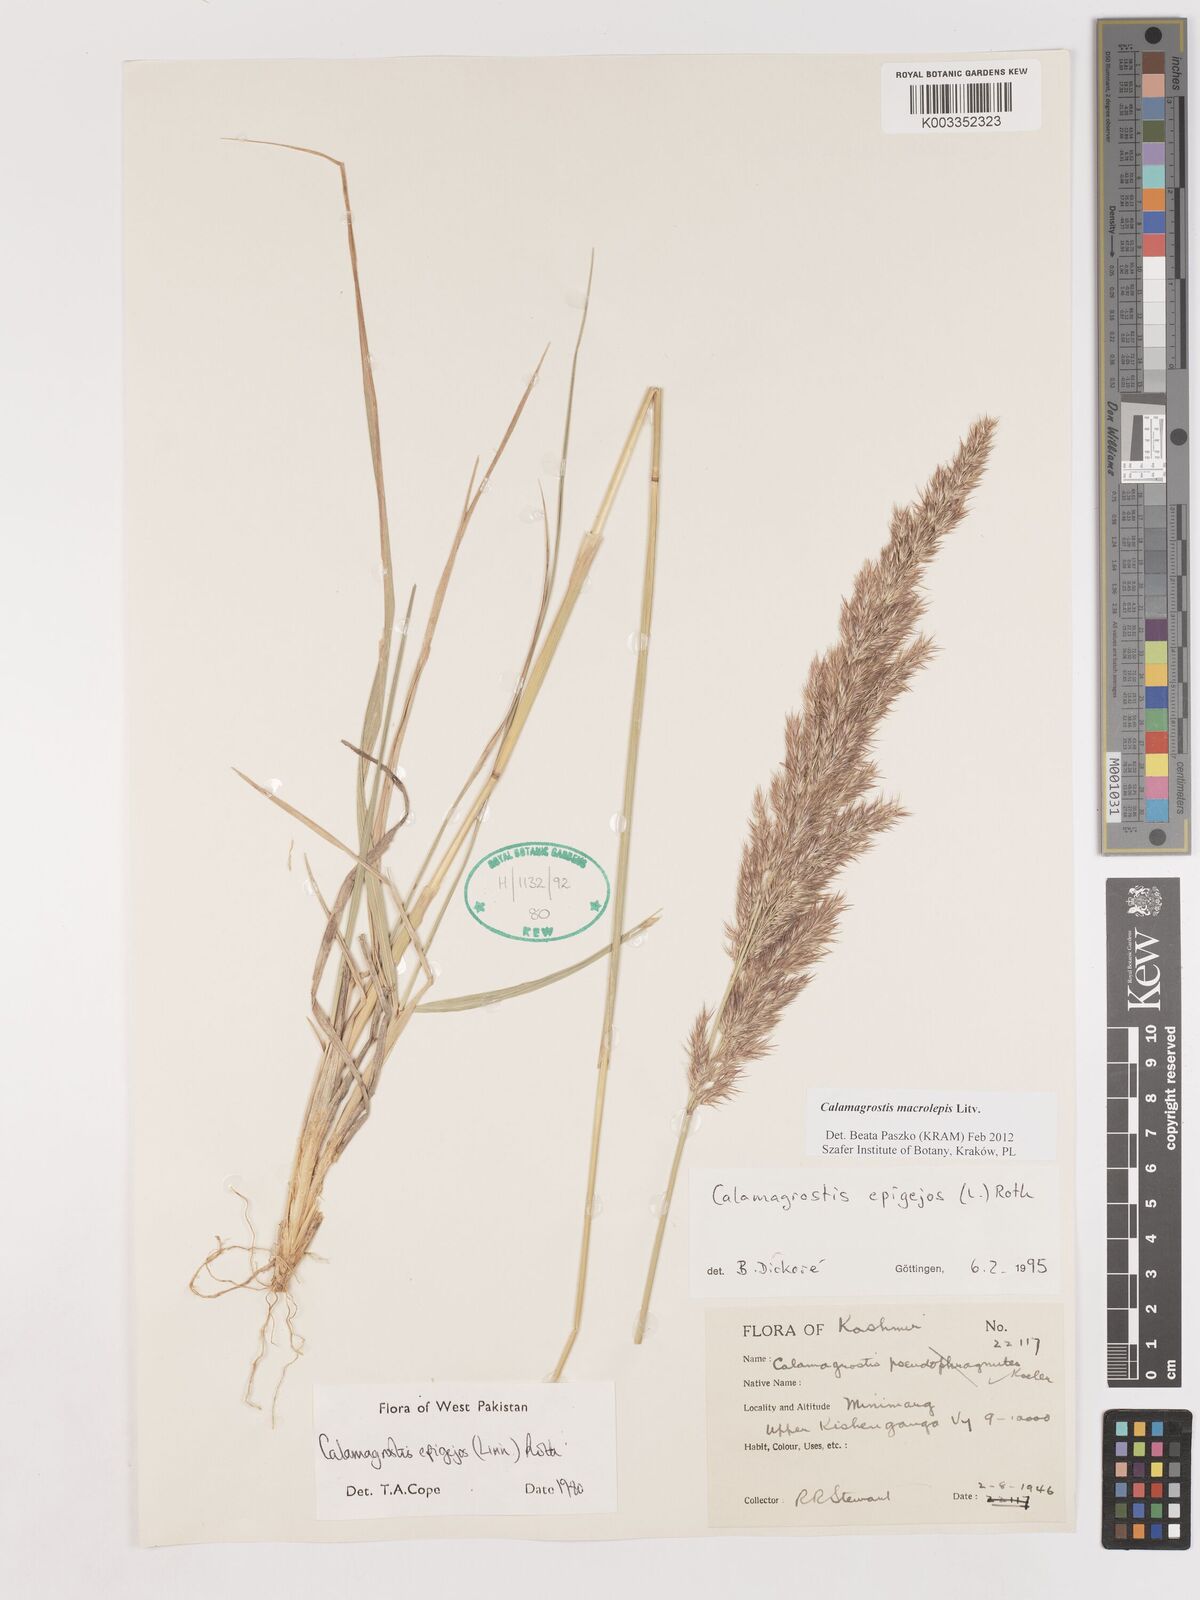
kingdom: Plantae
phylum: Tracheophyta
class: Liliopsida
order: Poales
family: Poaceae
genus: Calamagrostis
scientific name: Calamagrostis epigejos
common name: Wood small-reed
